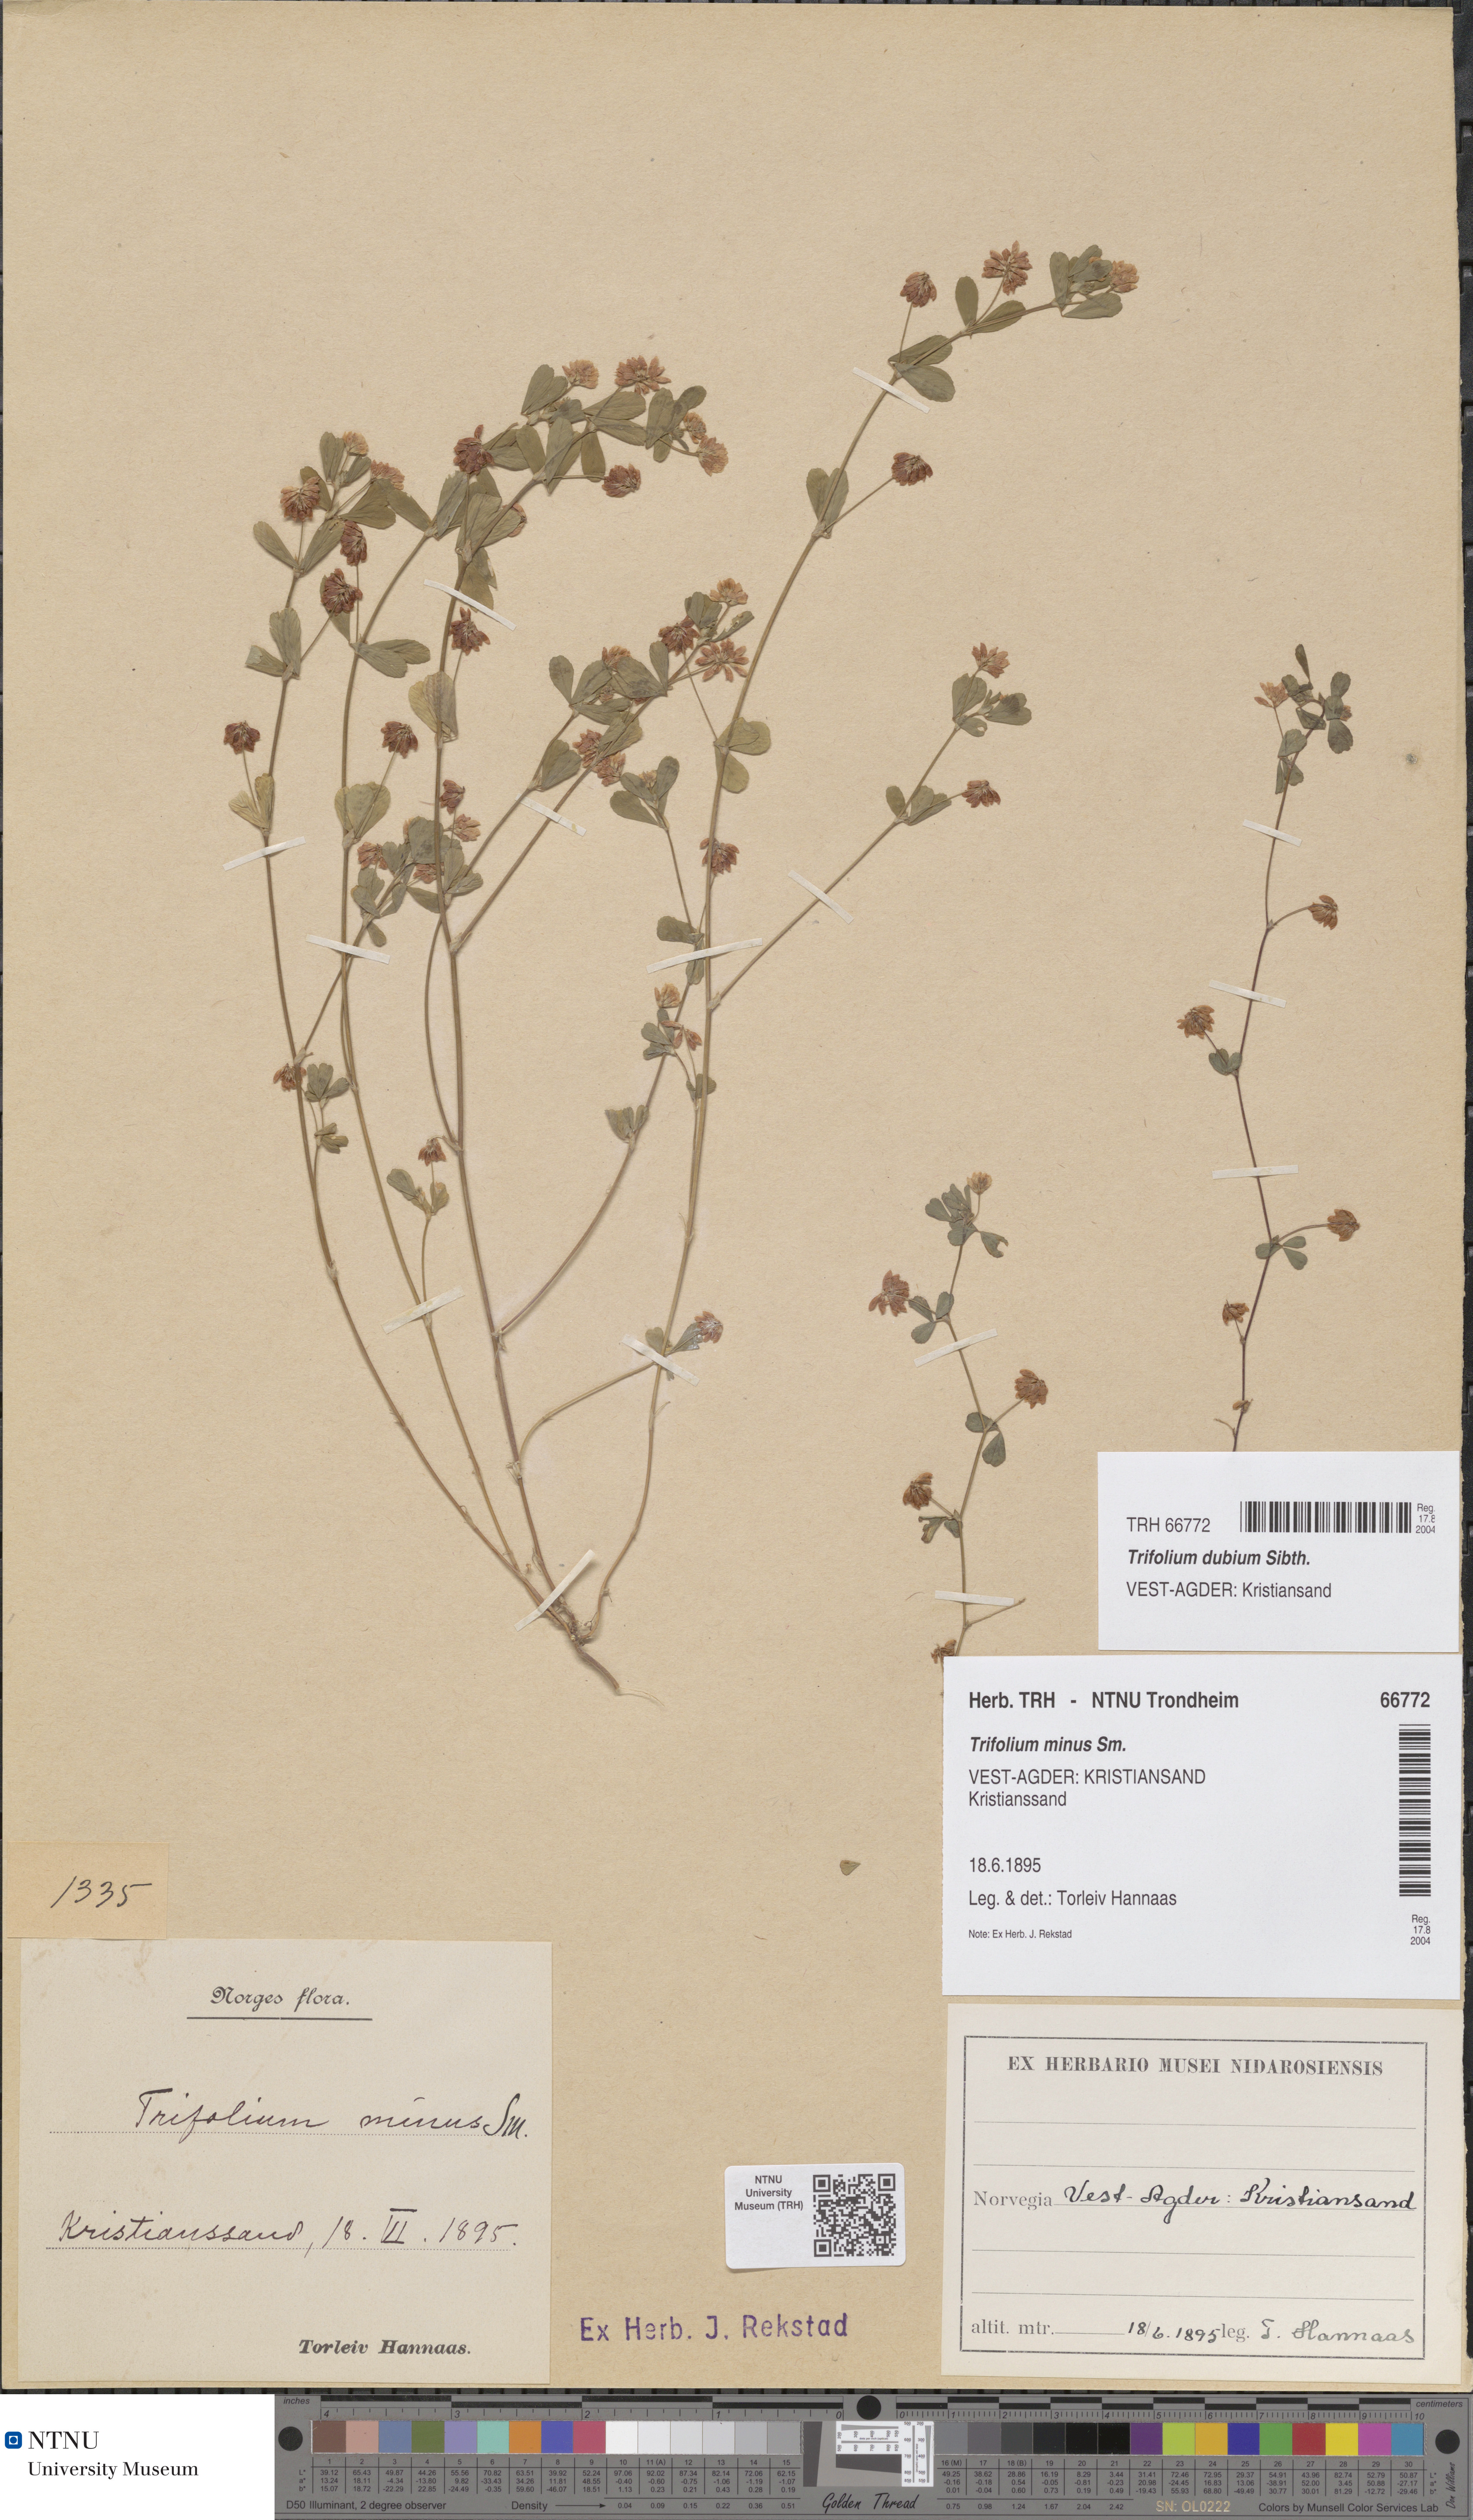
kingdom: Plantae
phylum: Tracheophyta
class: Magnoliopsida
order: Fabales
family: Fabaceae
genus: Trifolium
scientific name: Trifolium dubium
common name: Suckling clover
